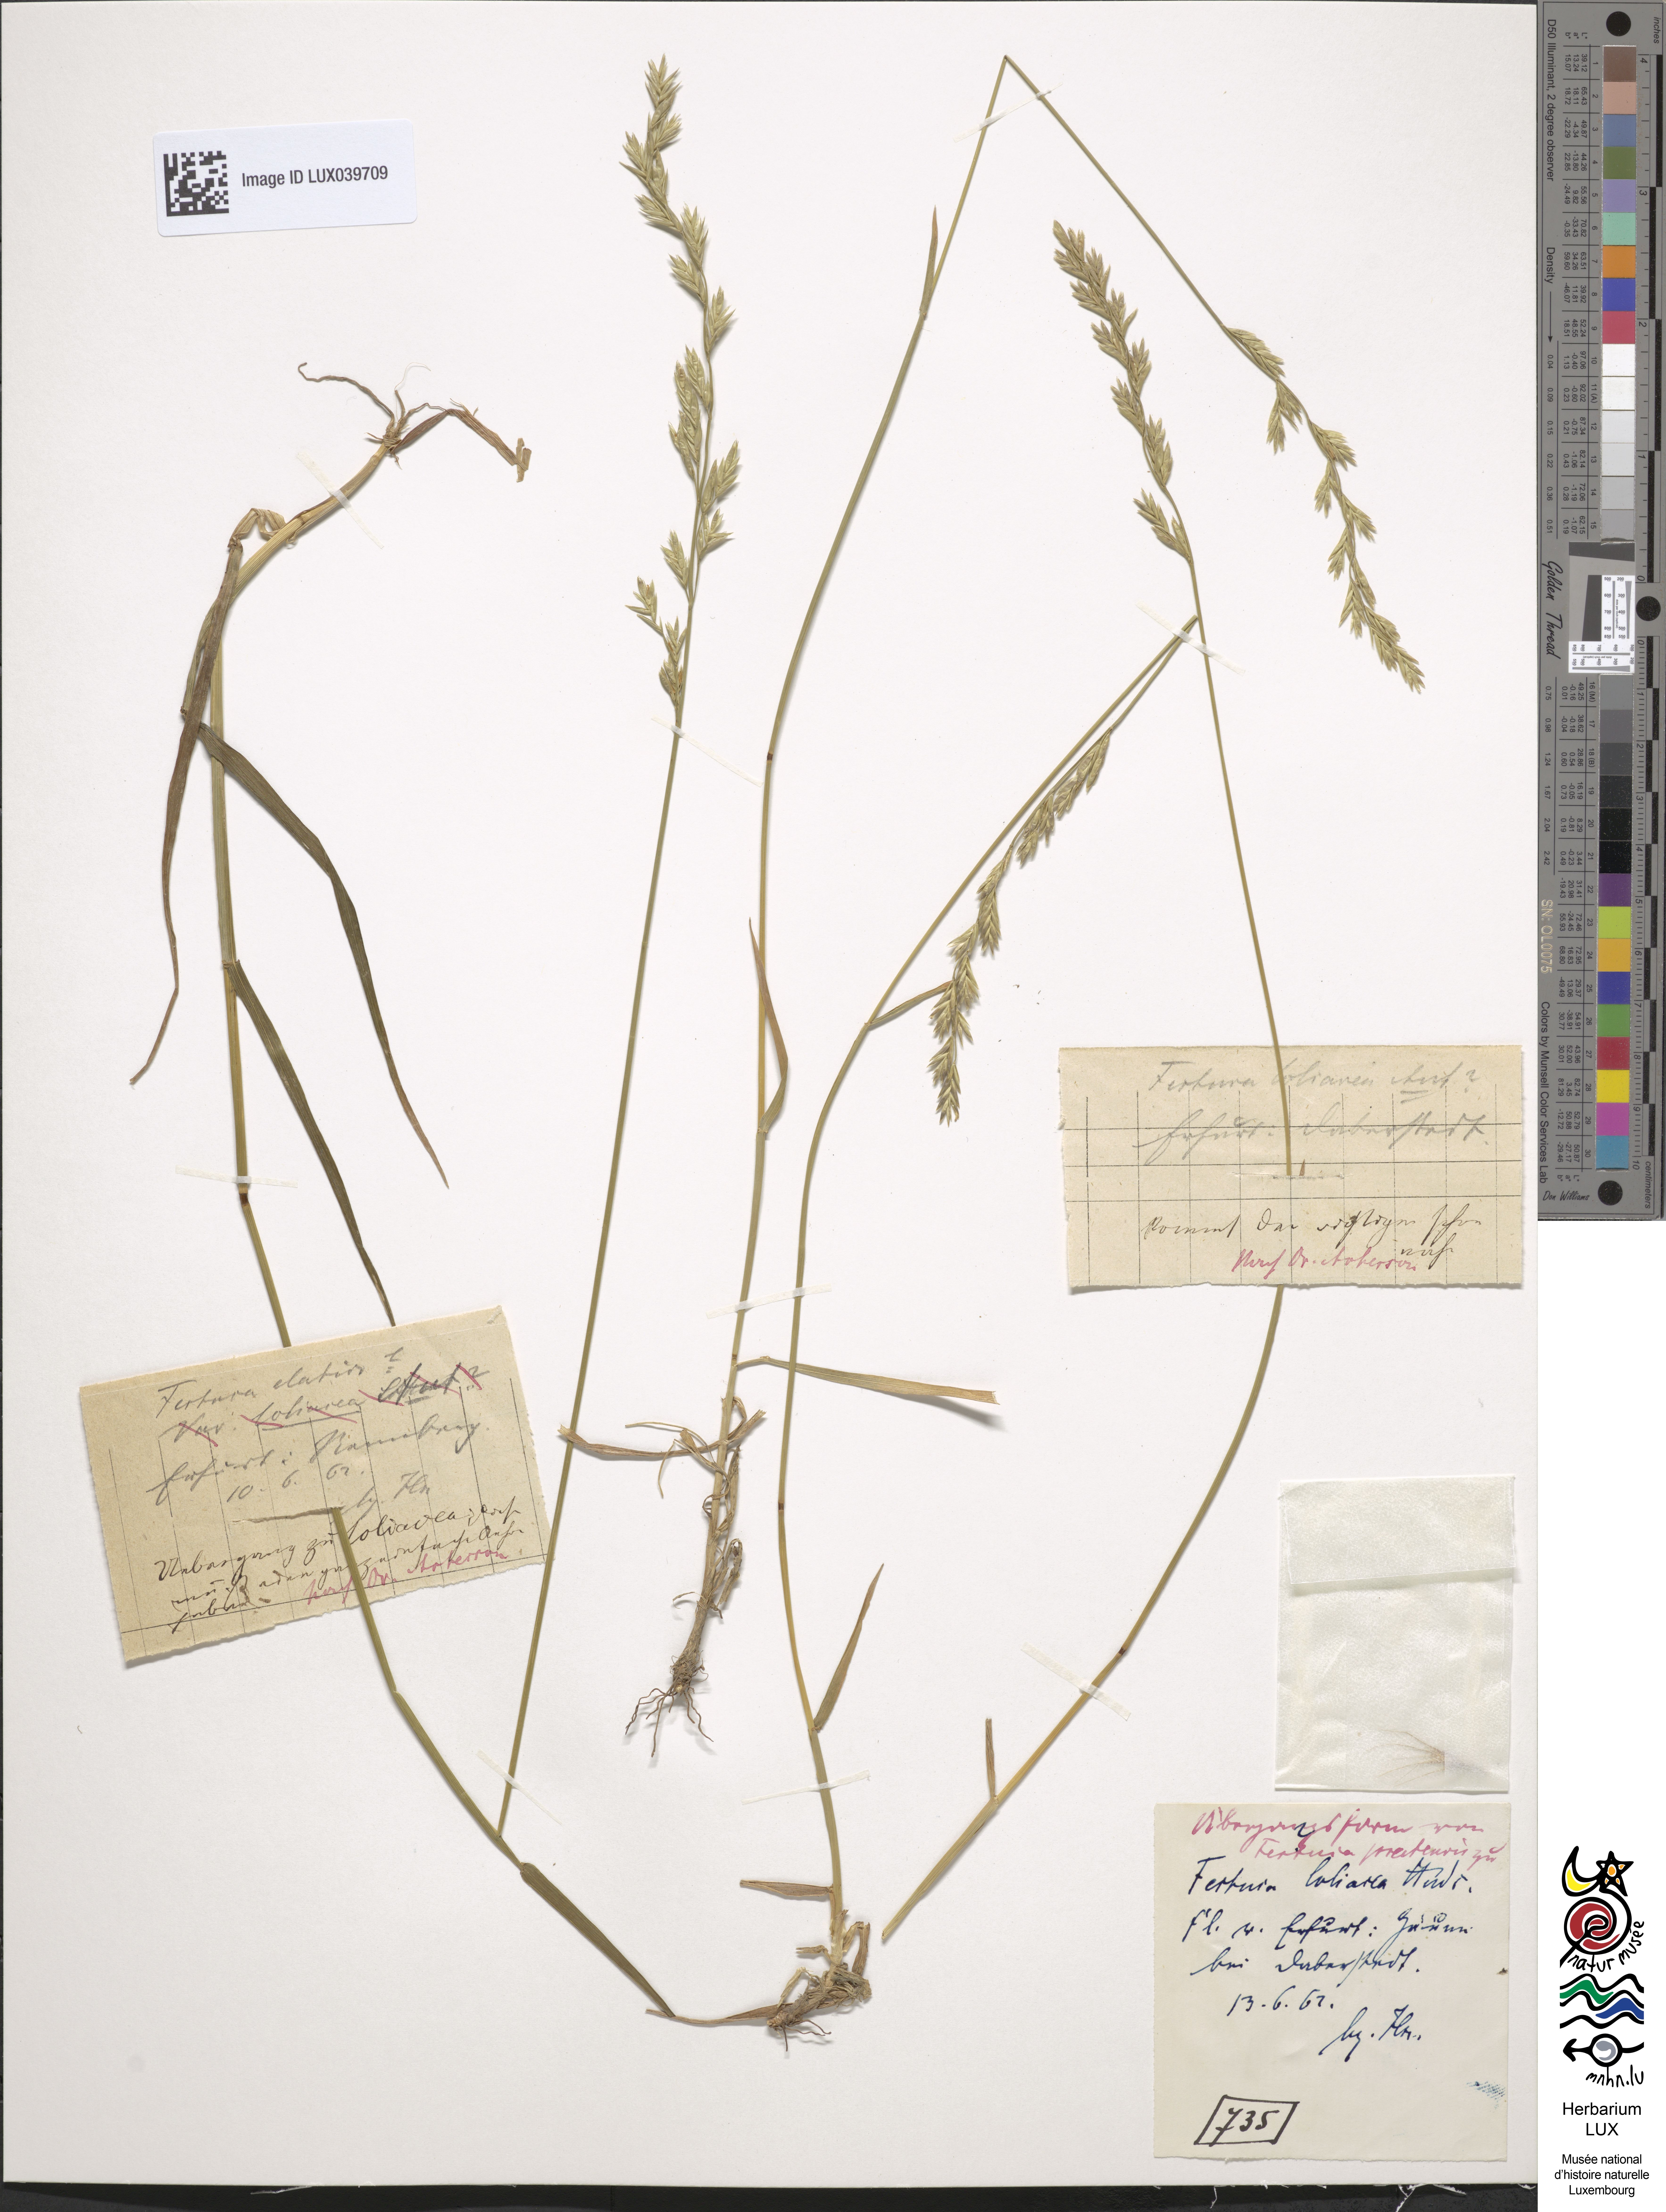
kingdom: Plantae
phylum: Tracheophyta
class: Liliopsida
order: Poales
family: Poaceae
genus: Lolium
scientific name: Lolium pratense
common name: Dover grass
